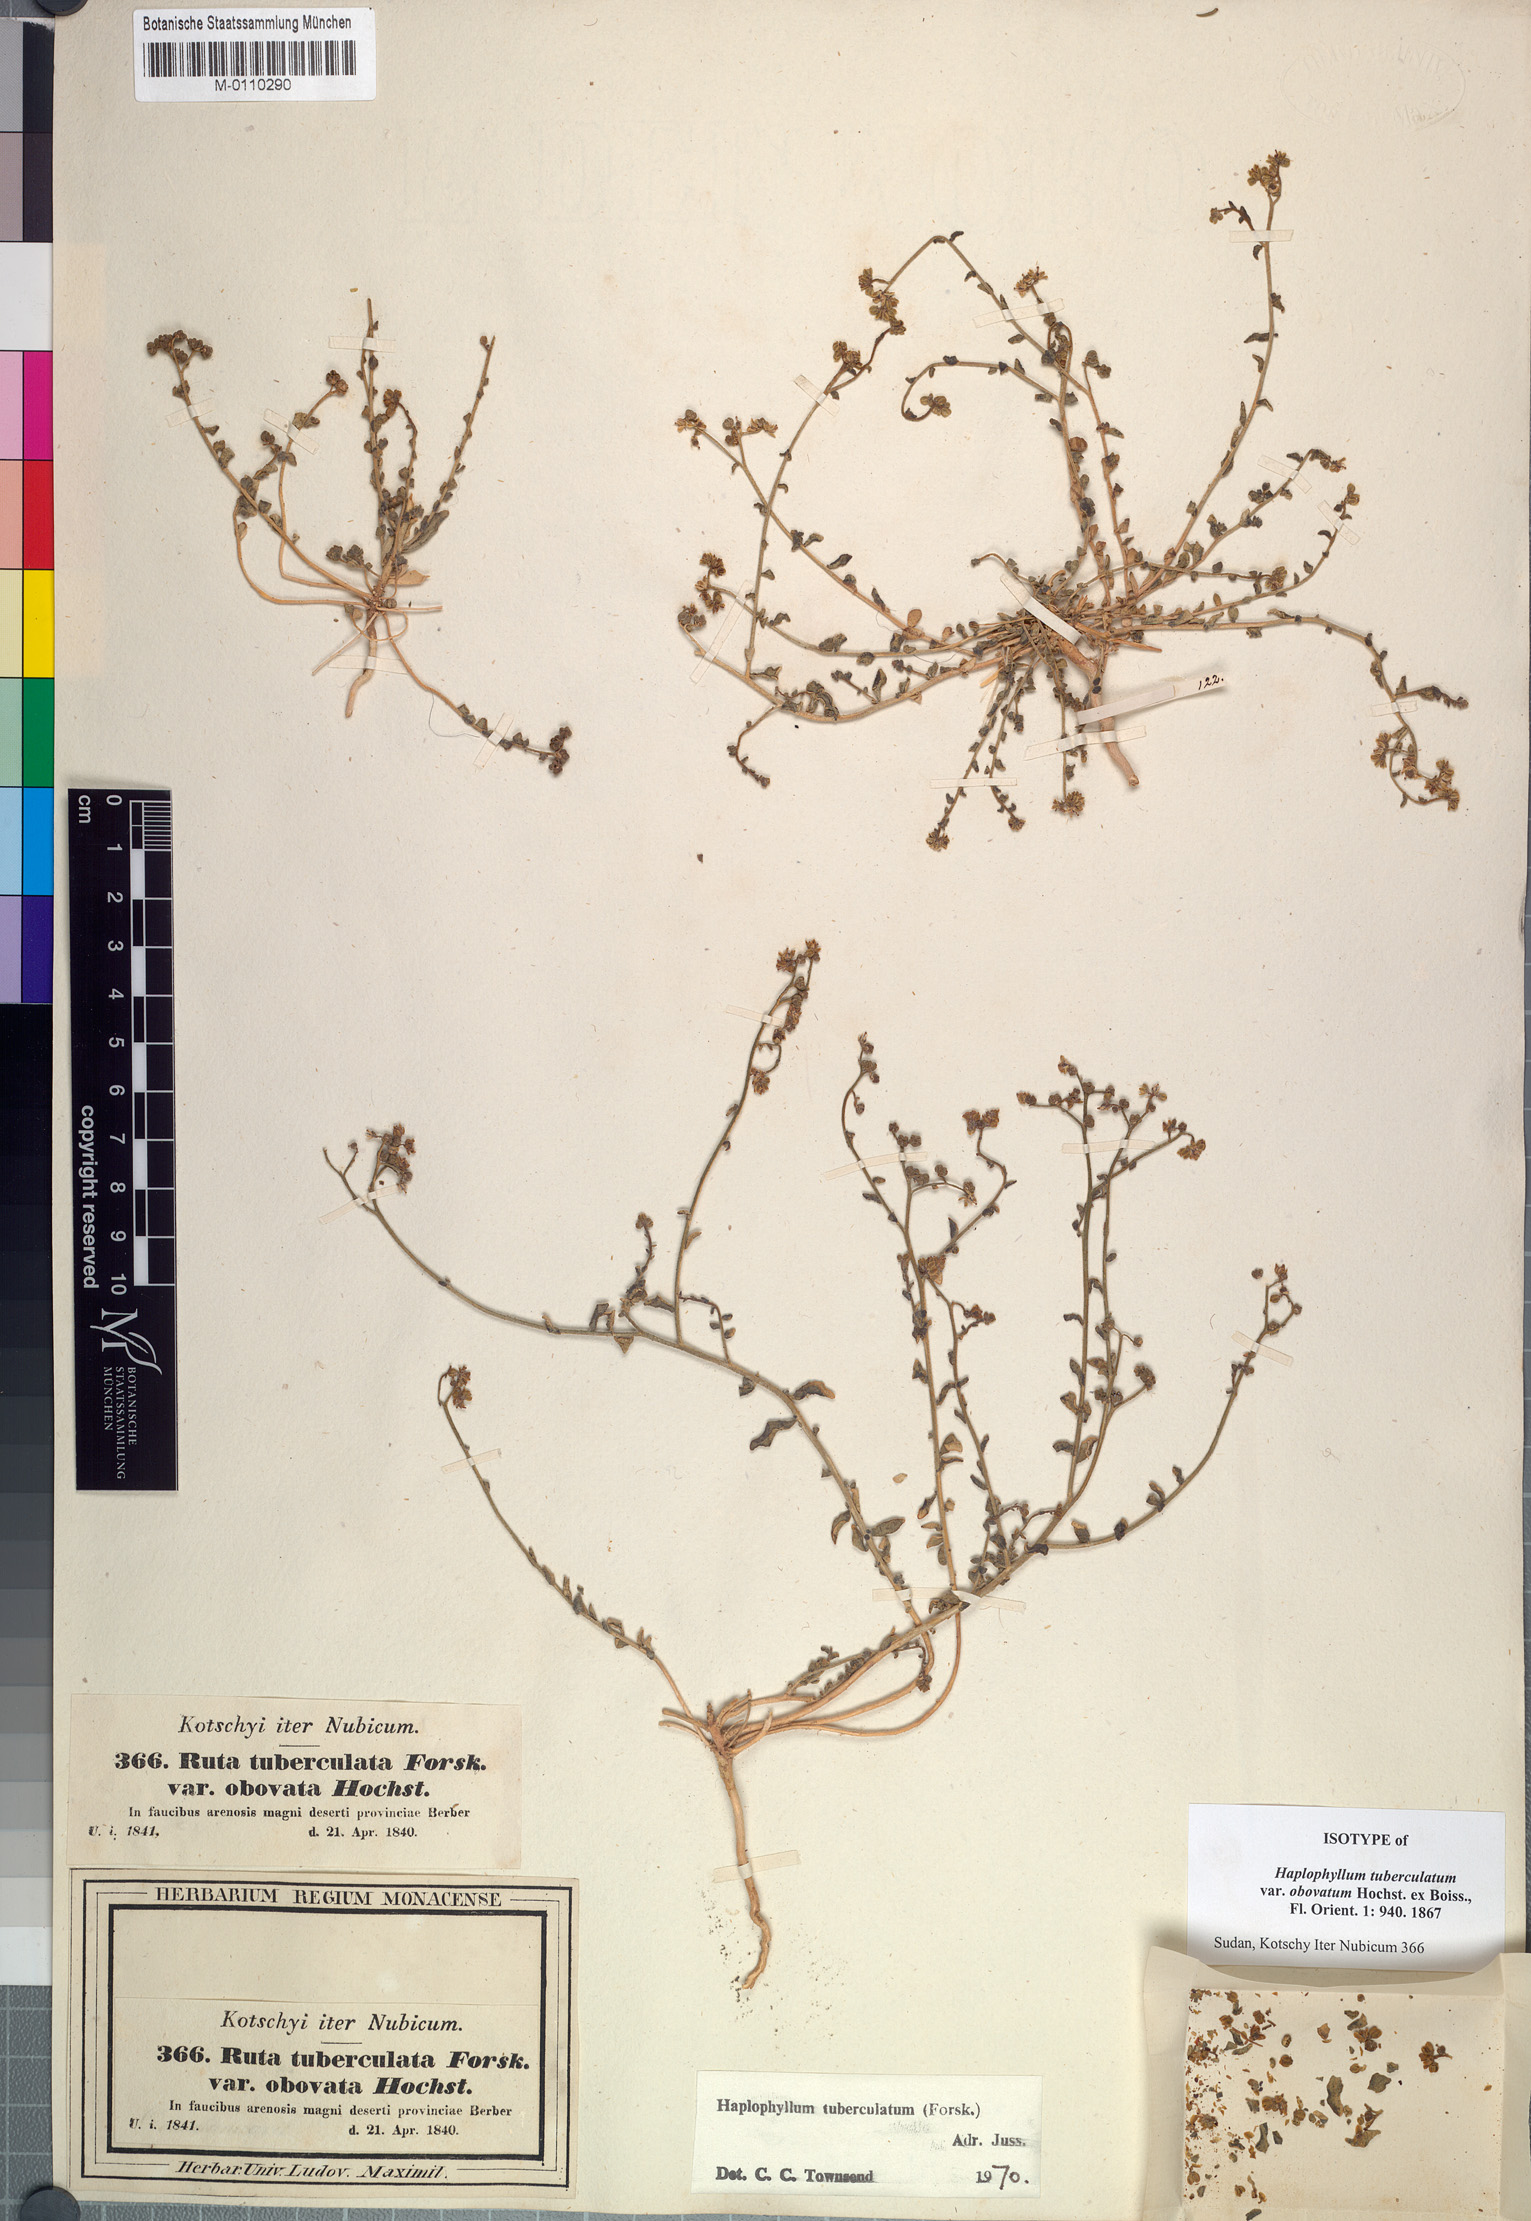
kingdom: Plantae
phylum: Tracheophyta
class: Magnoliopsida
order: Sapindales
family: Rutaceae
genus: Haplophyllum
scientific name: Haplophyllum tuberculatum
